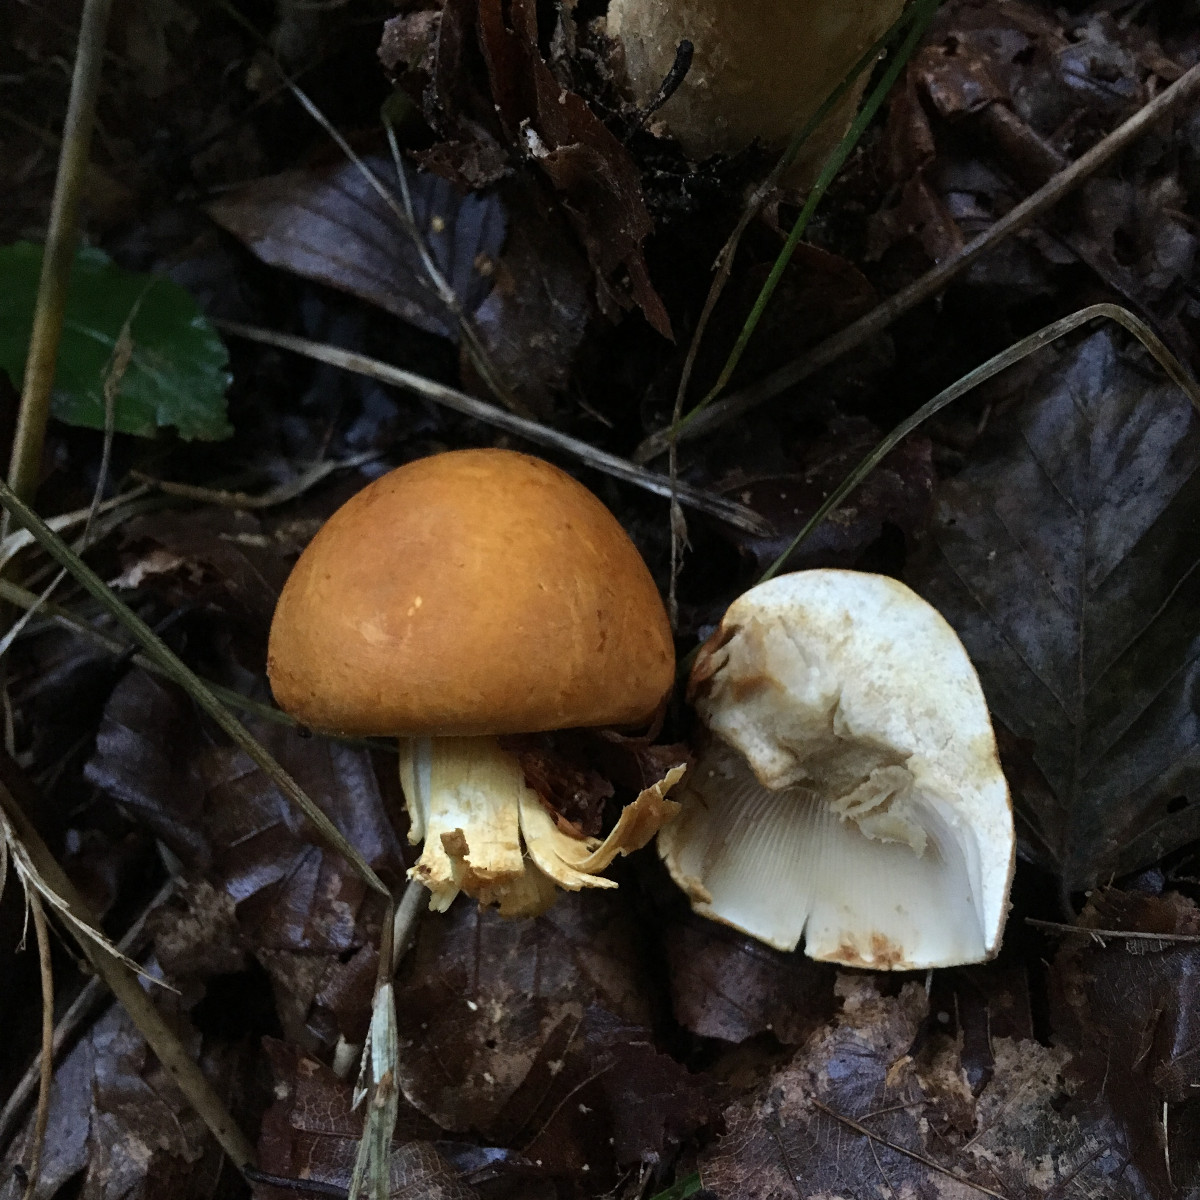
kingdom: Fungi
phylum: Basidiomycota
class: Agaricomycetes
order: Agaricales
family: Tricholomataceae
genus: Phaeolepiota
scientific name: Phaeolepiota aurea
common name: gyldenhat
